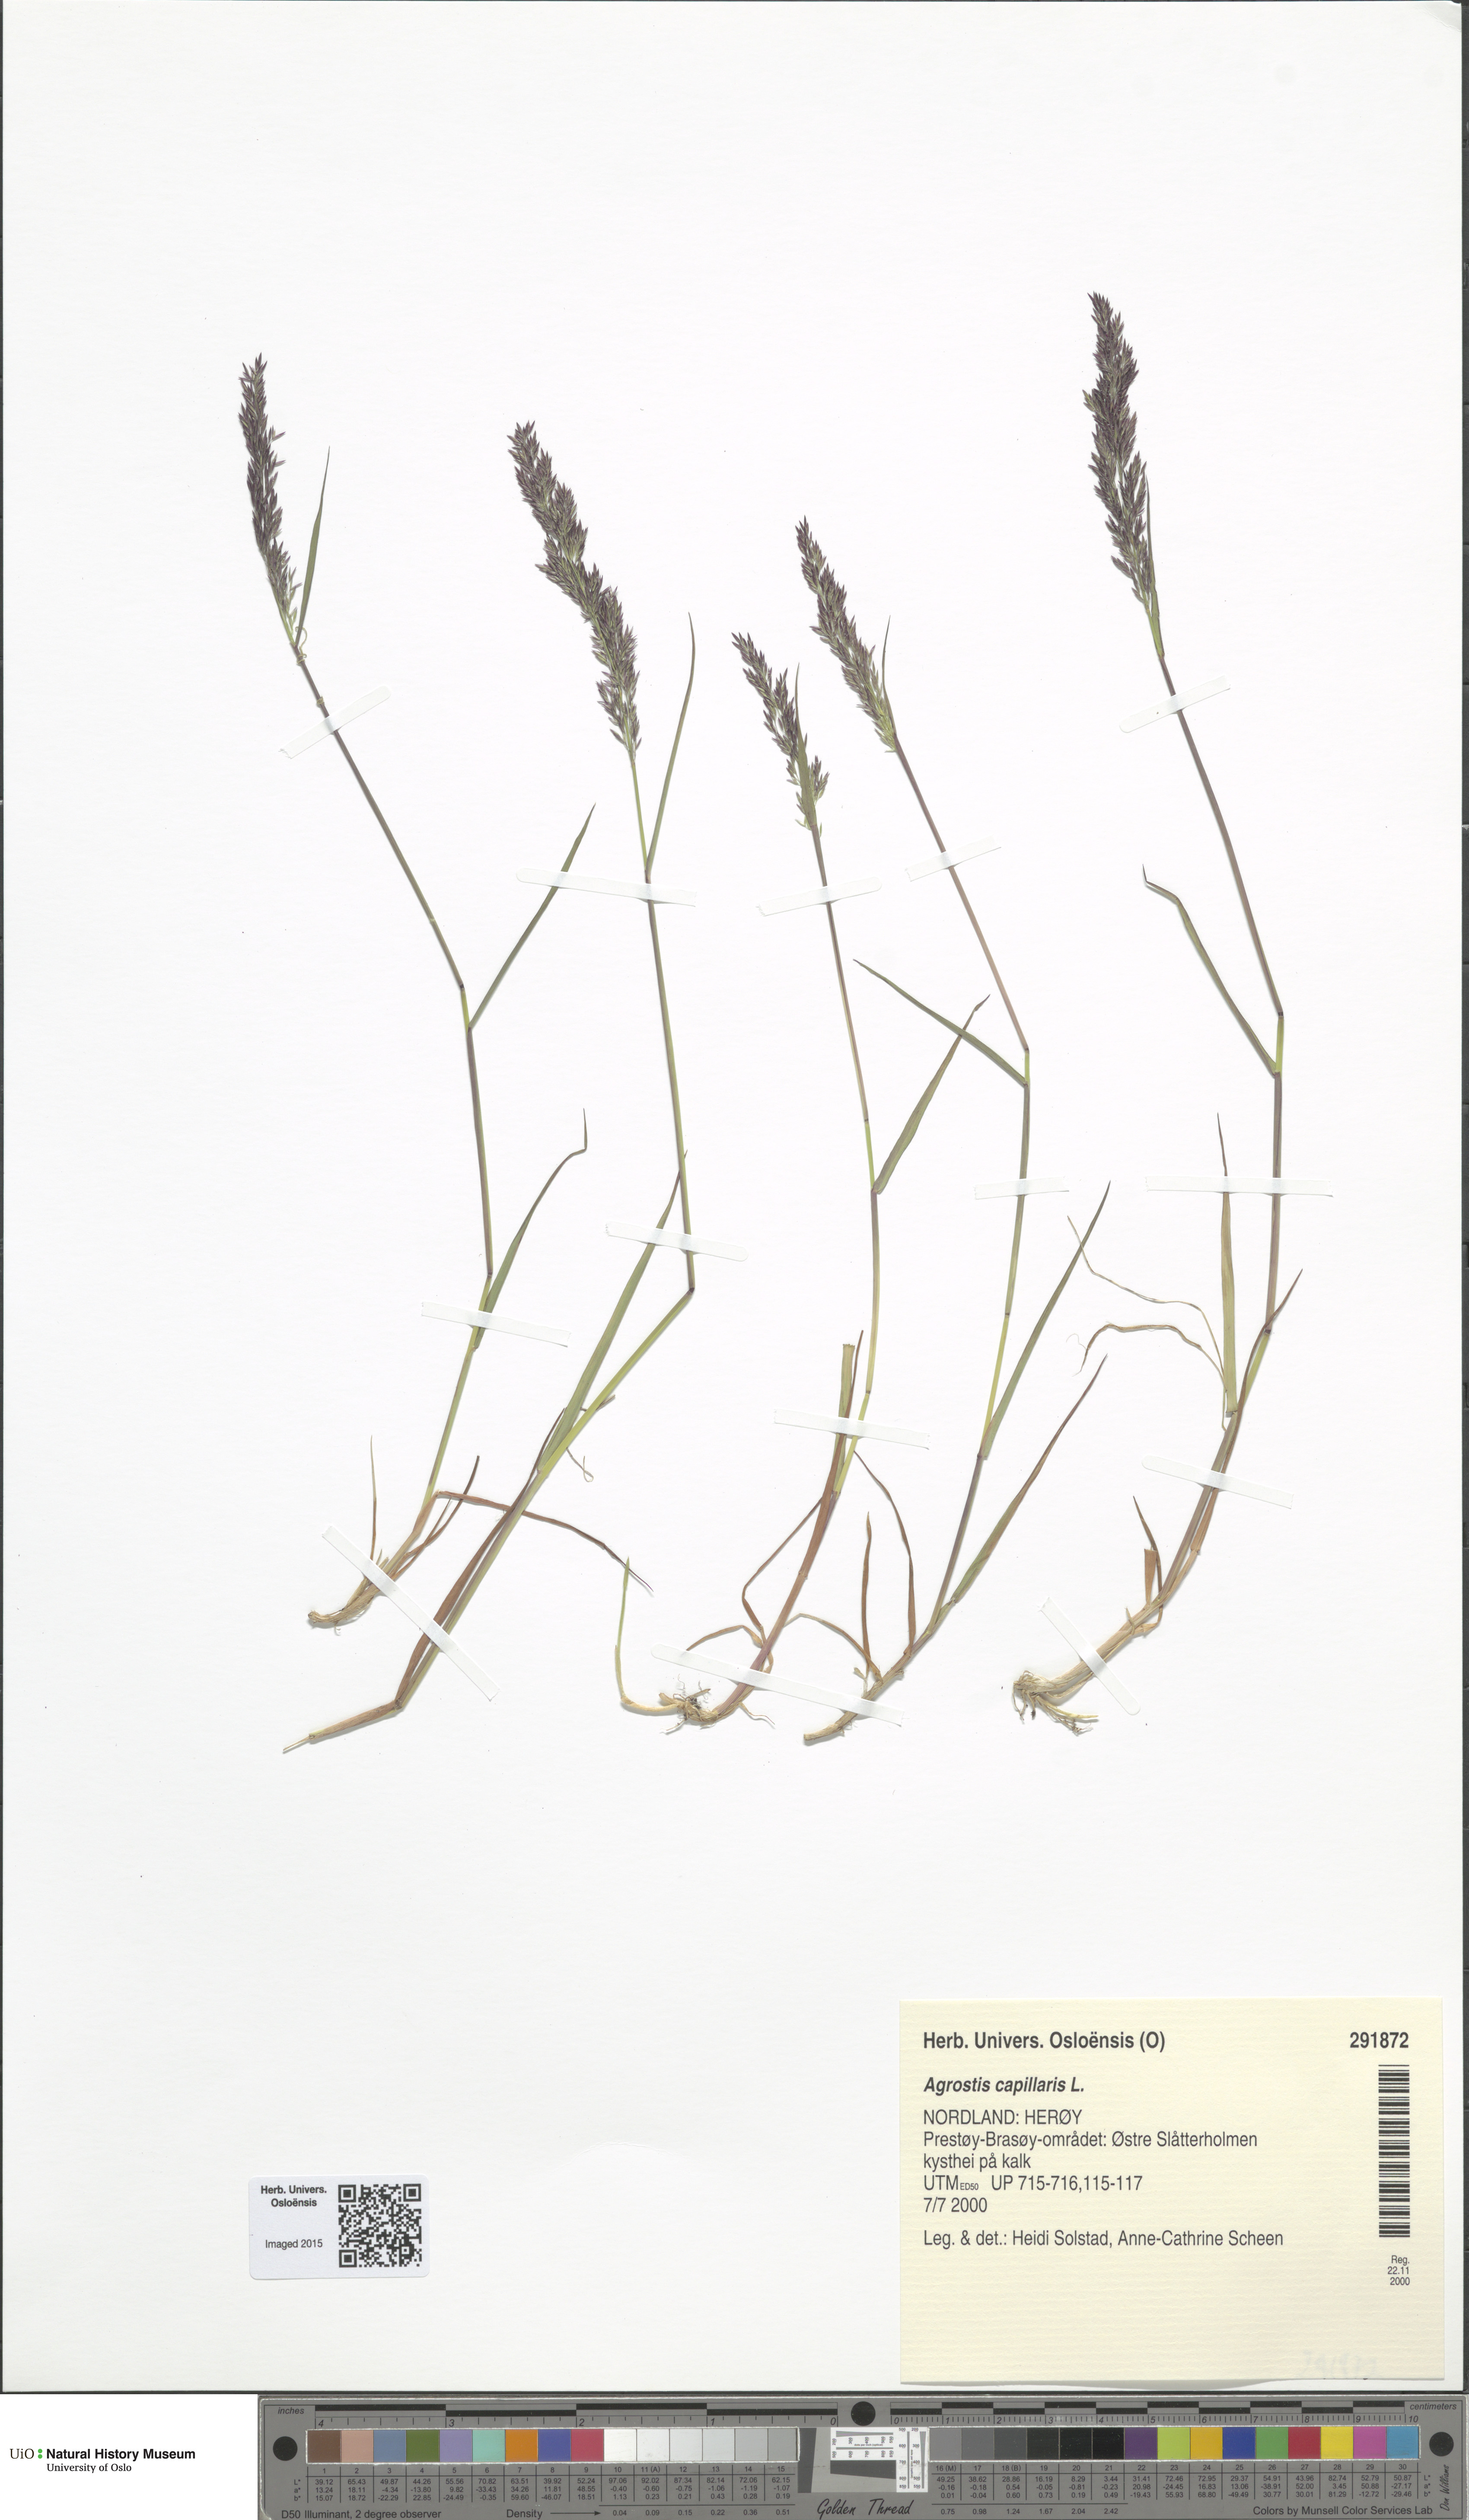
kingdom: Plantae
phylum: Tracheophyta
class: Liliopsida
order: Poales
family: Poaceae
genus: Agrostis
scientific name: Agrostis capillaris
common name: Colonial bentgrass
